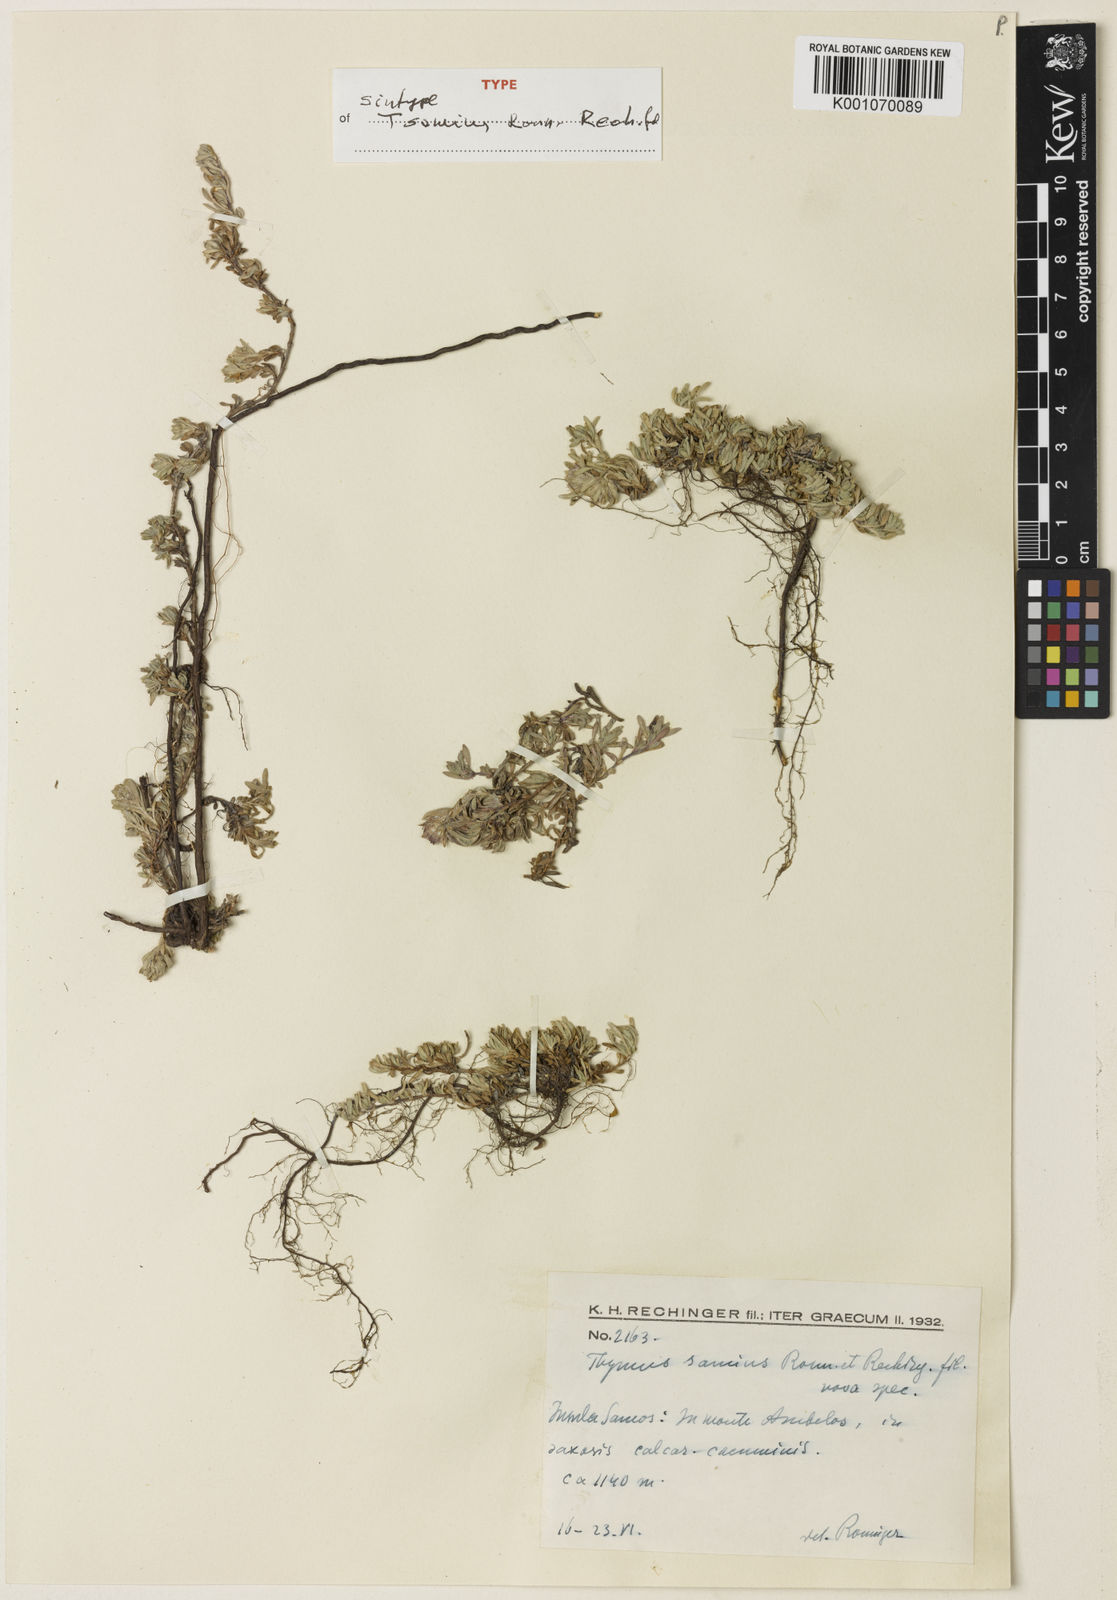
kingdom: Plantae
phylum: Tracheophyta
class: Magnoliopsida
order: Lamiales
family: Lamiaceae
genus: Thymus
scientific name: Thymus samius
